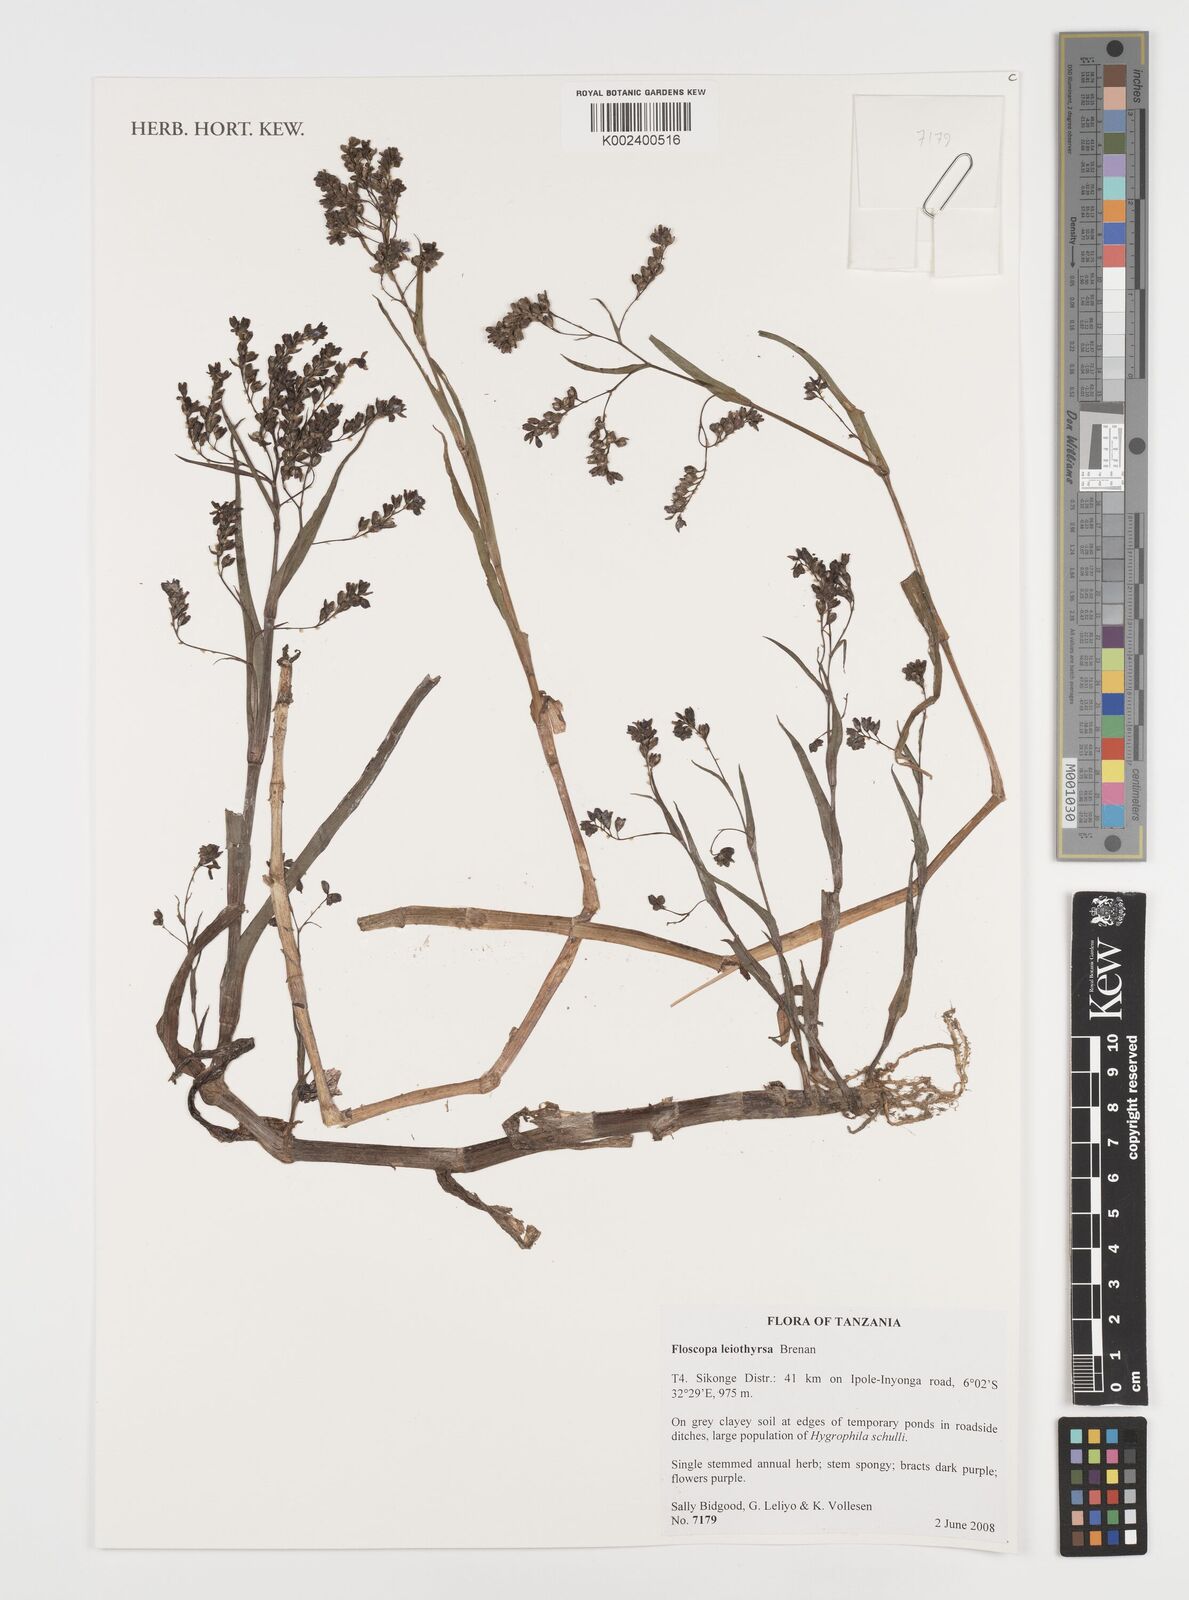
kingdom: Plantae
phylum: Tracheophyta
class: Liliopsida
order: Commelinales
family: Commelinaceae
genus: Floscopa
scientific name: Floscopa leiothyrsa
